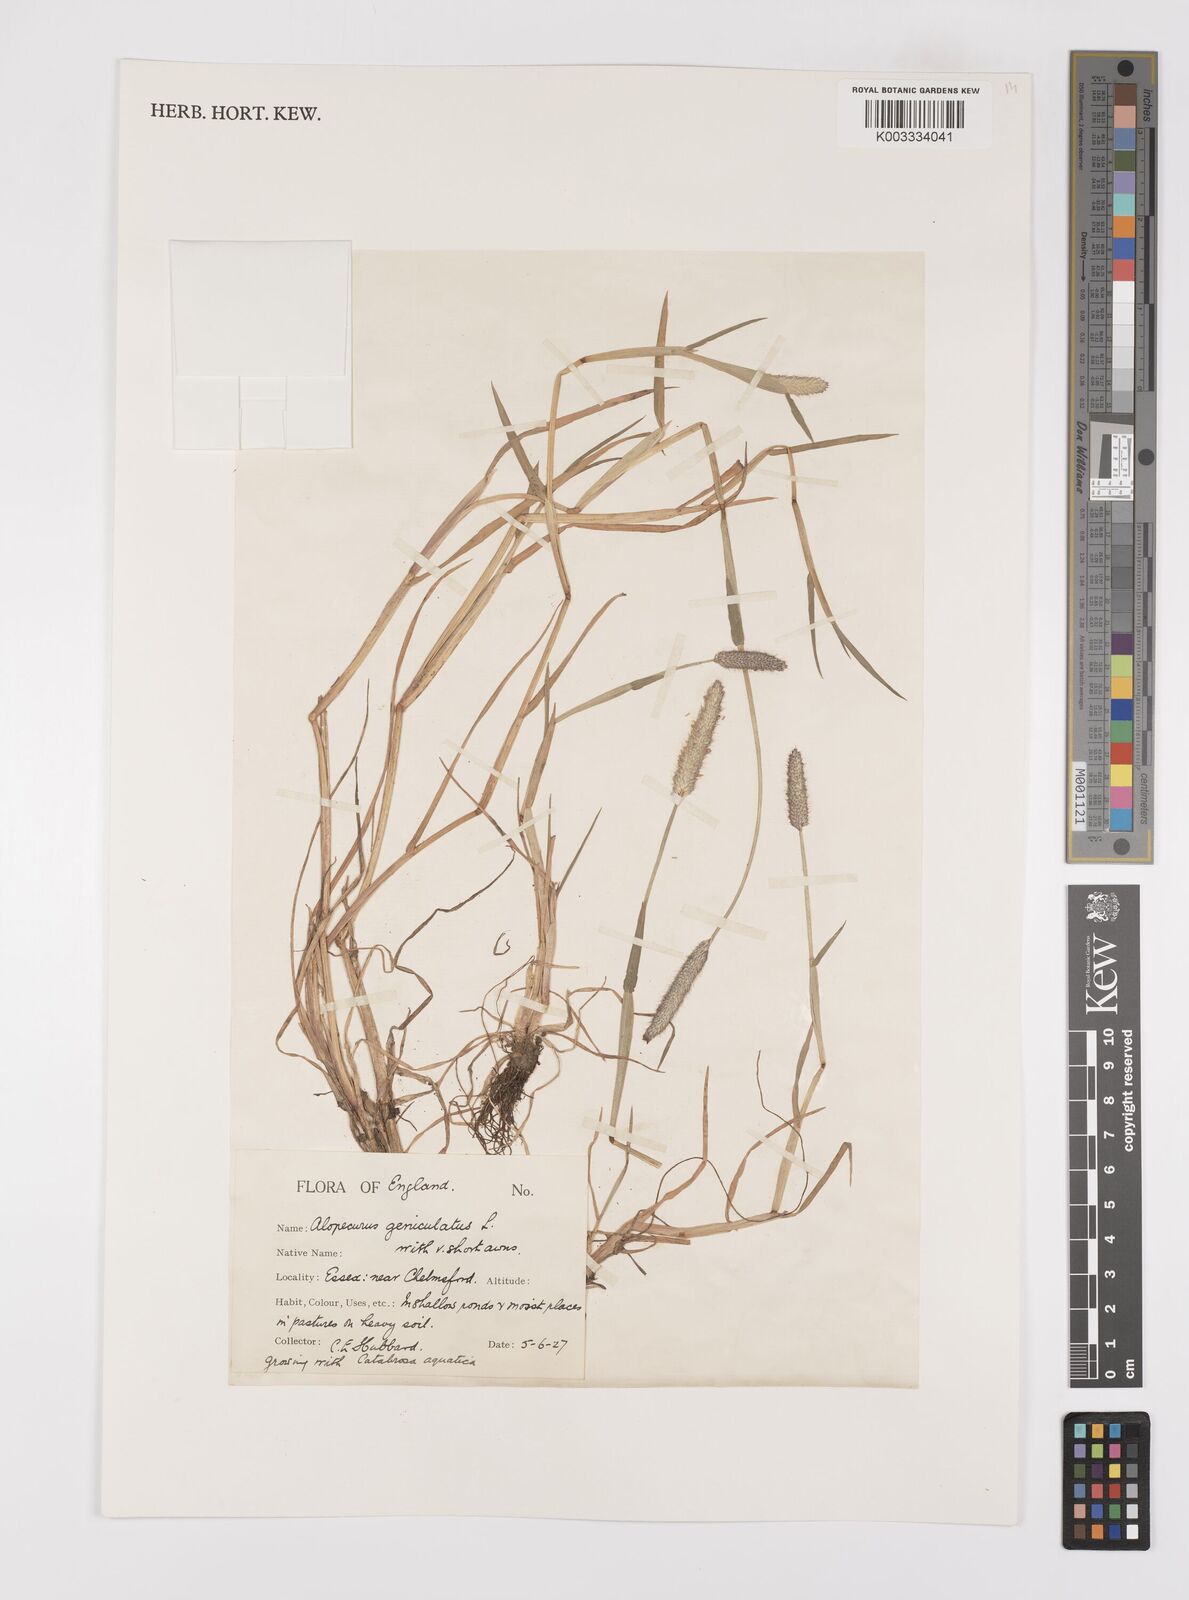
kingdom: Plantae
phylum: Tracheophyta
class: Liliopsida
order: Poales
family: Poaceae
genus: Alopecurus
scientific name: Alopecurus geniculatus
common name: Water foxtail
